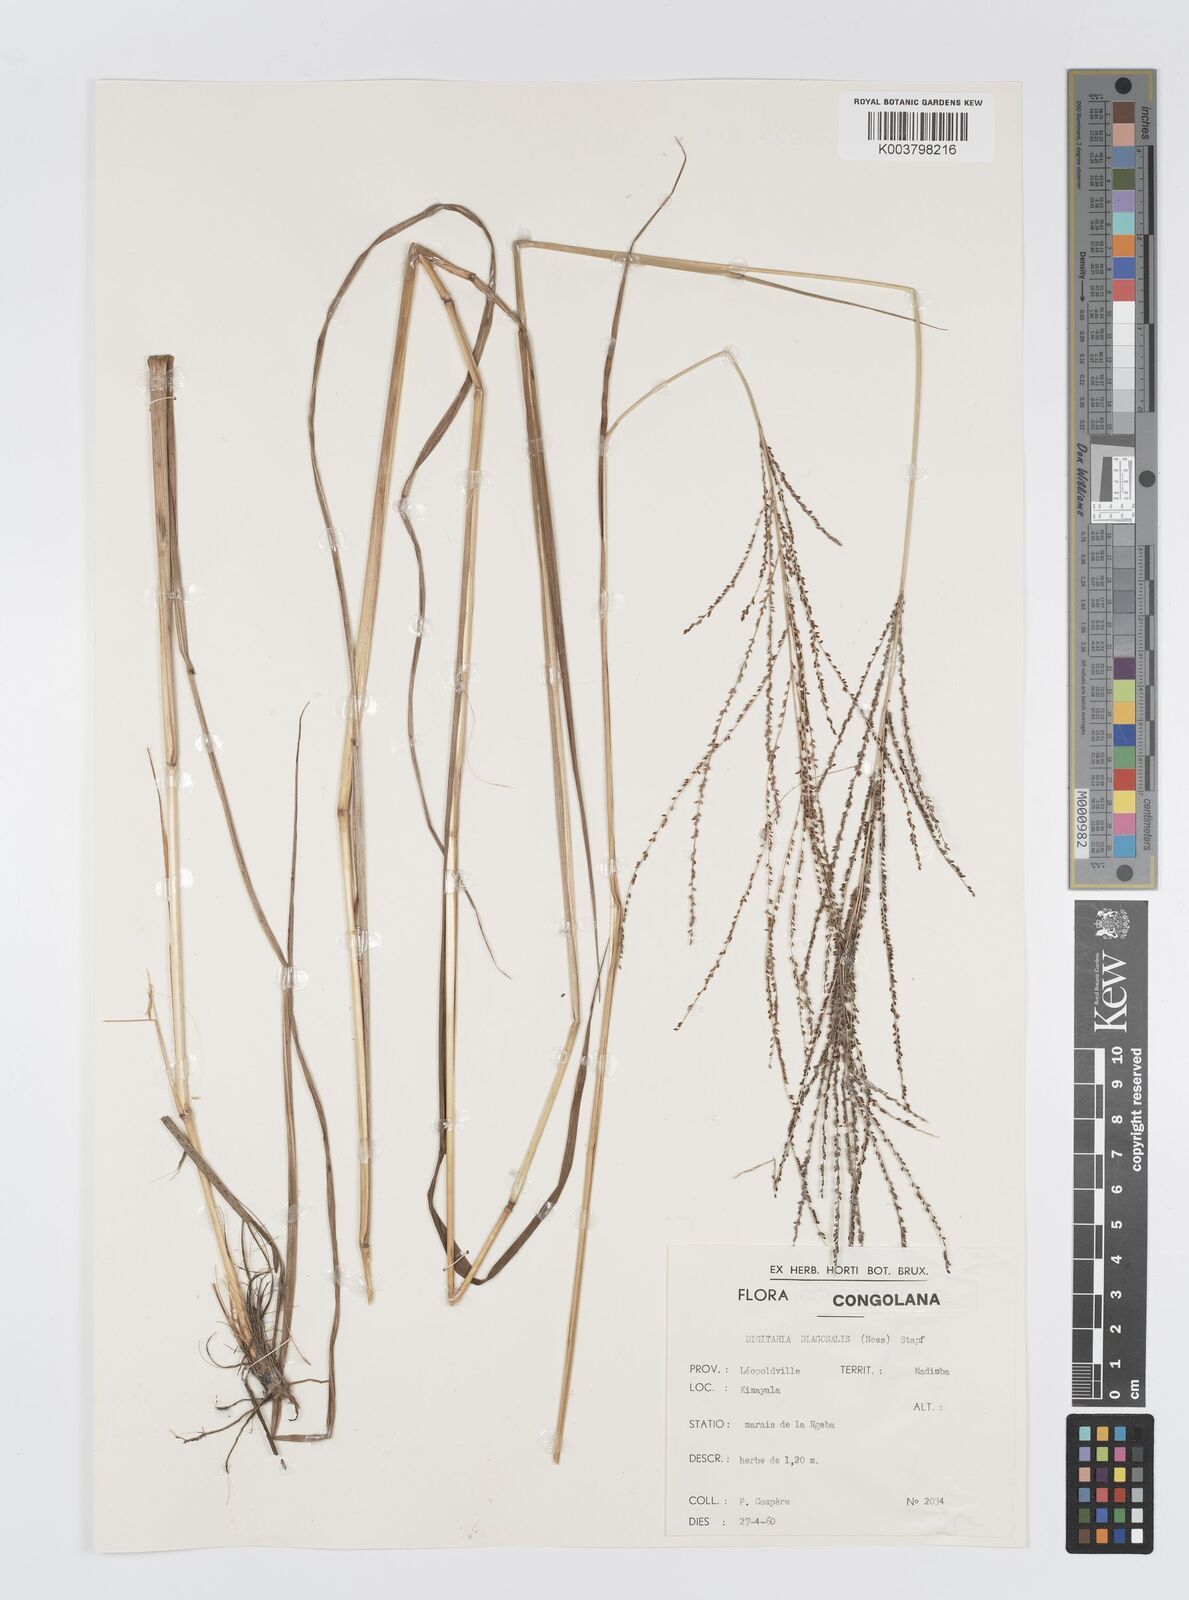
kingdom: Plantae
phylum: Tracheophyta
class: Liliopsida
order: Poales
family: Poaceae
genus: Digitaria
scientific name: Digitaria diagonalis
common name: Brown-seed finger grass
